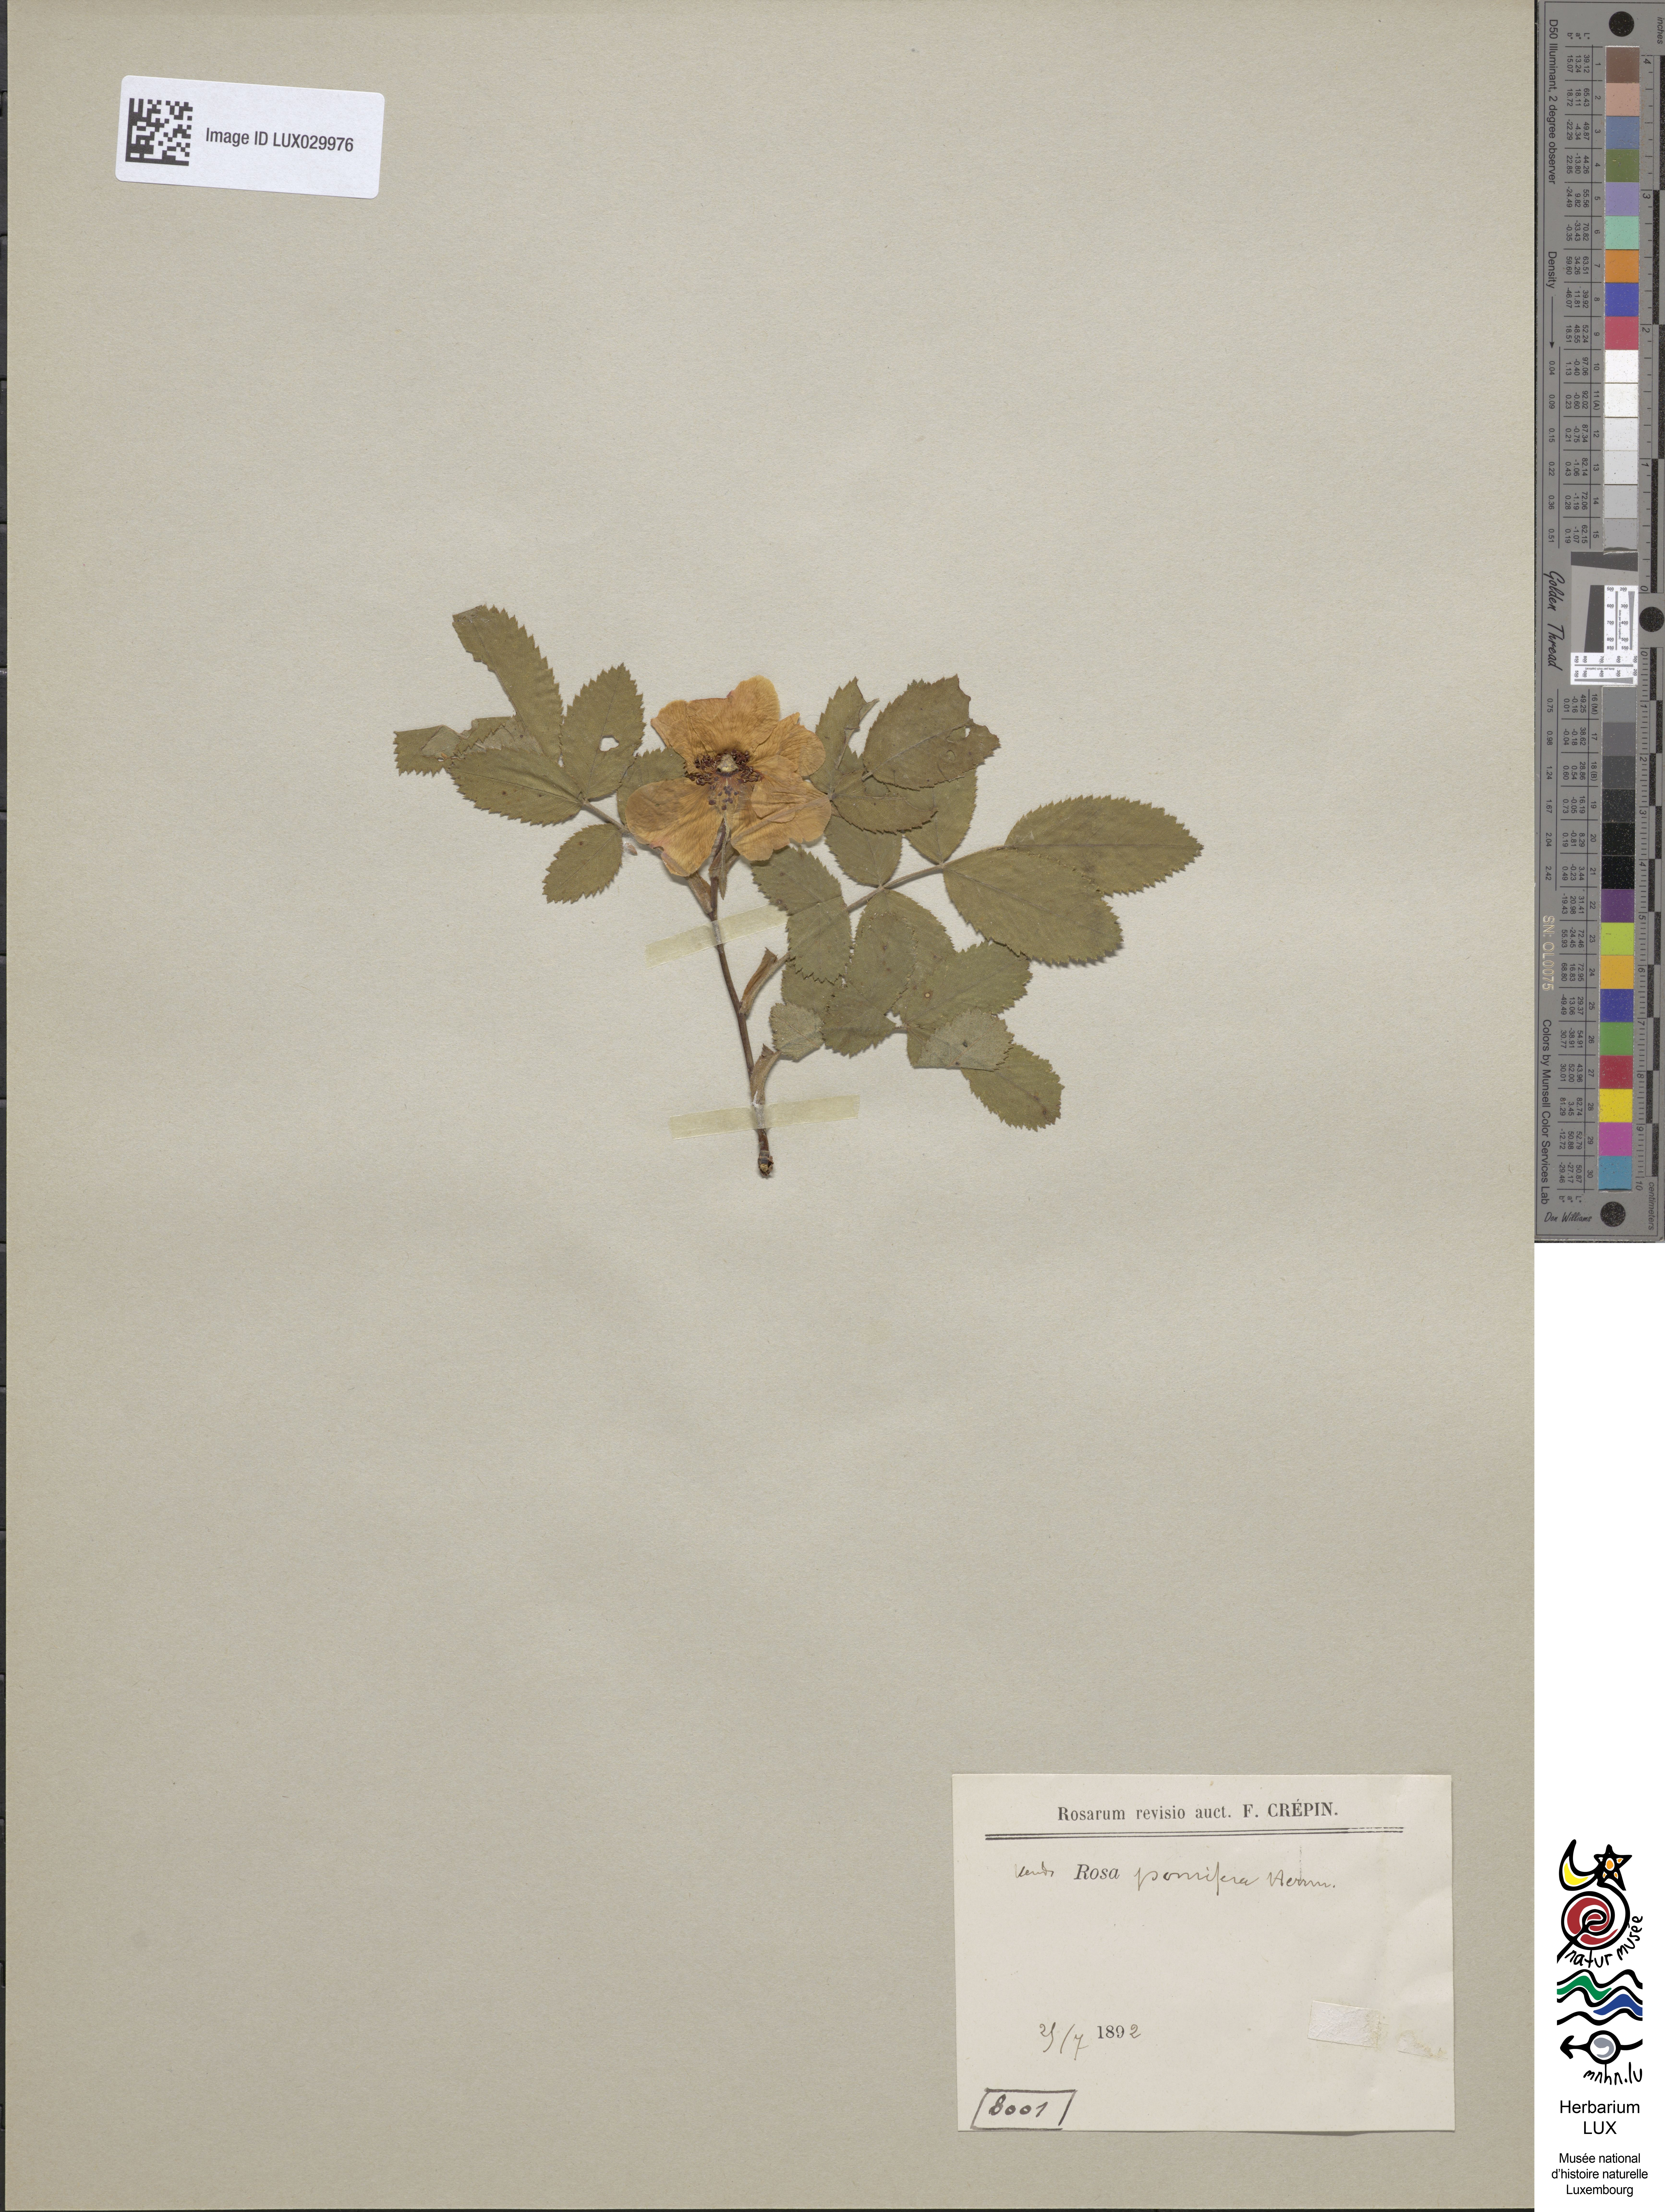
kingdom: Plantae
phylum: Tracheophyta
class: Magnoliopsida
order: Rosales
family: Rosaceae
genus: Rosa
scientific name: Rosa villosa
